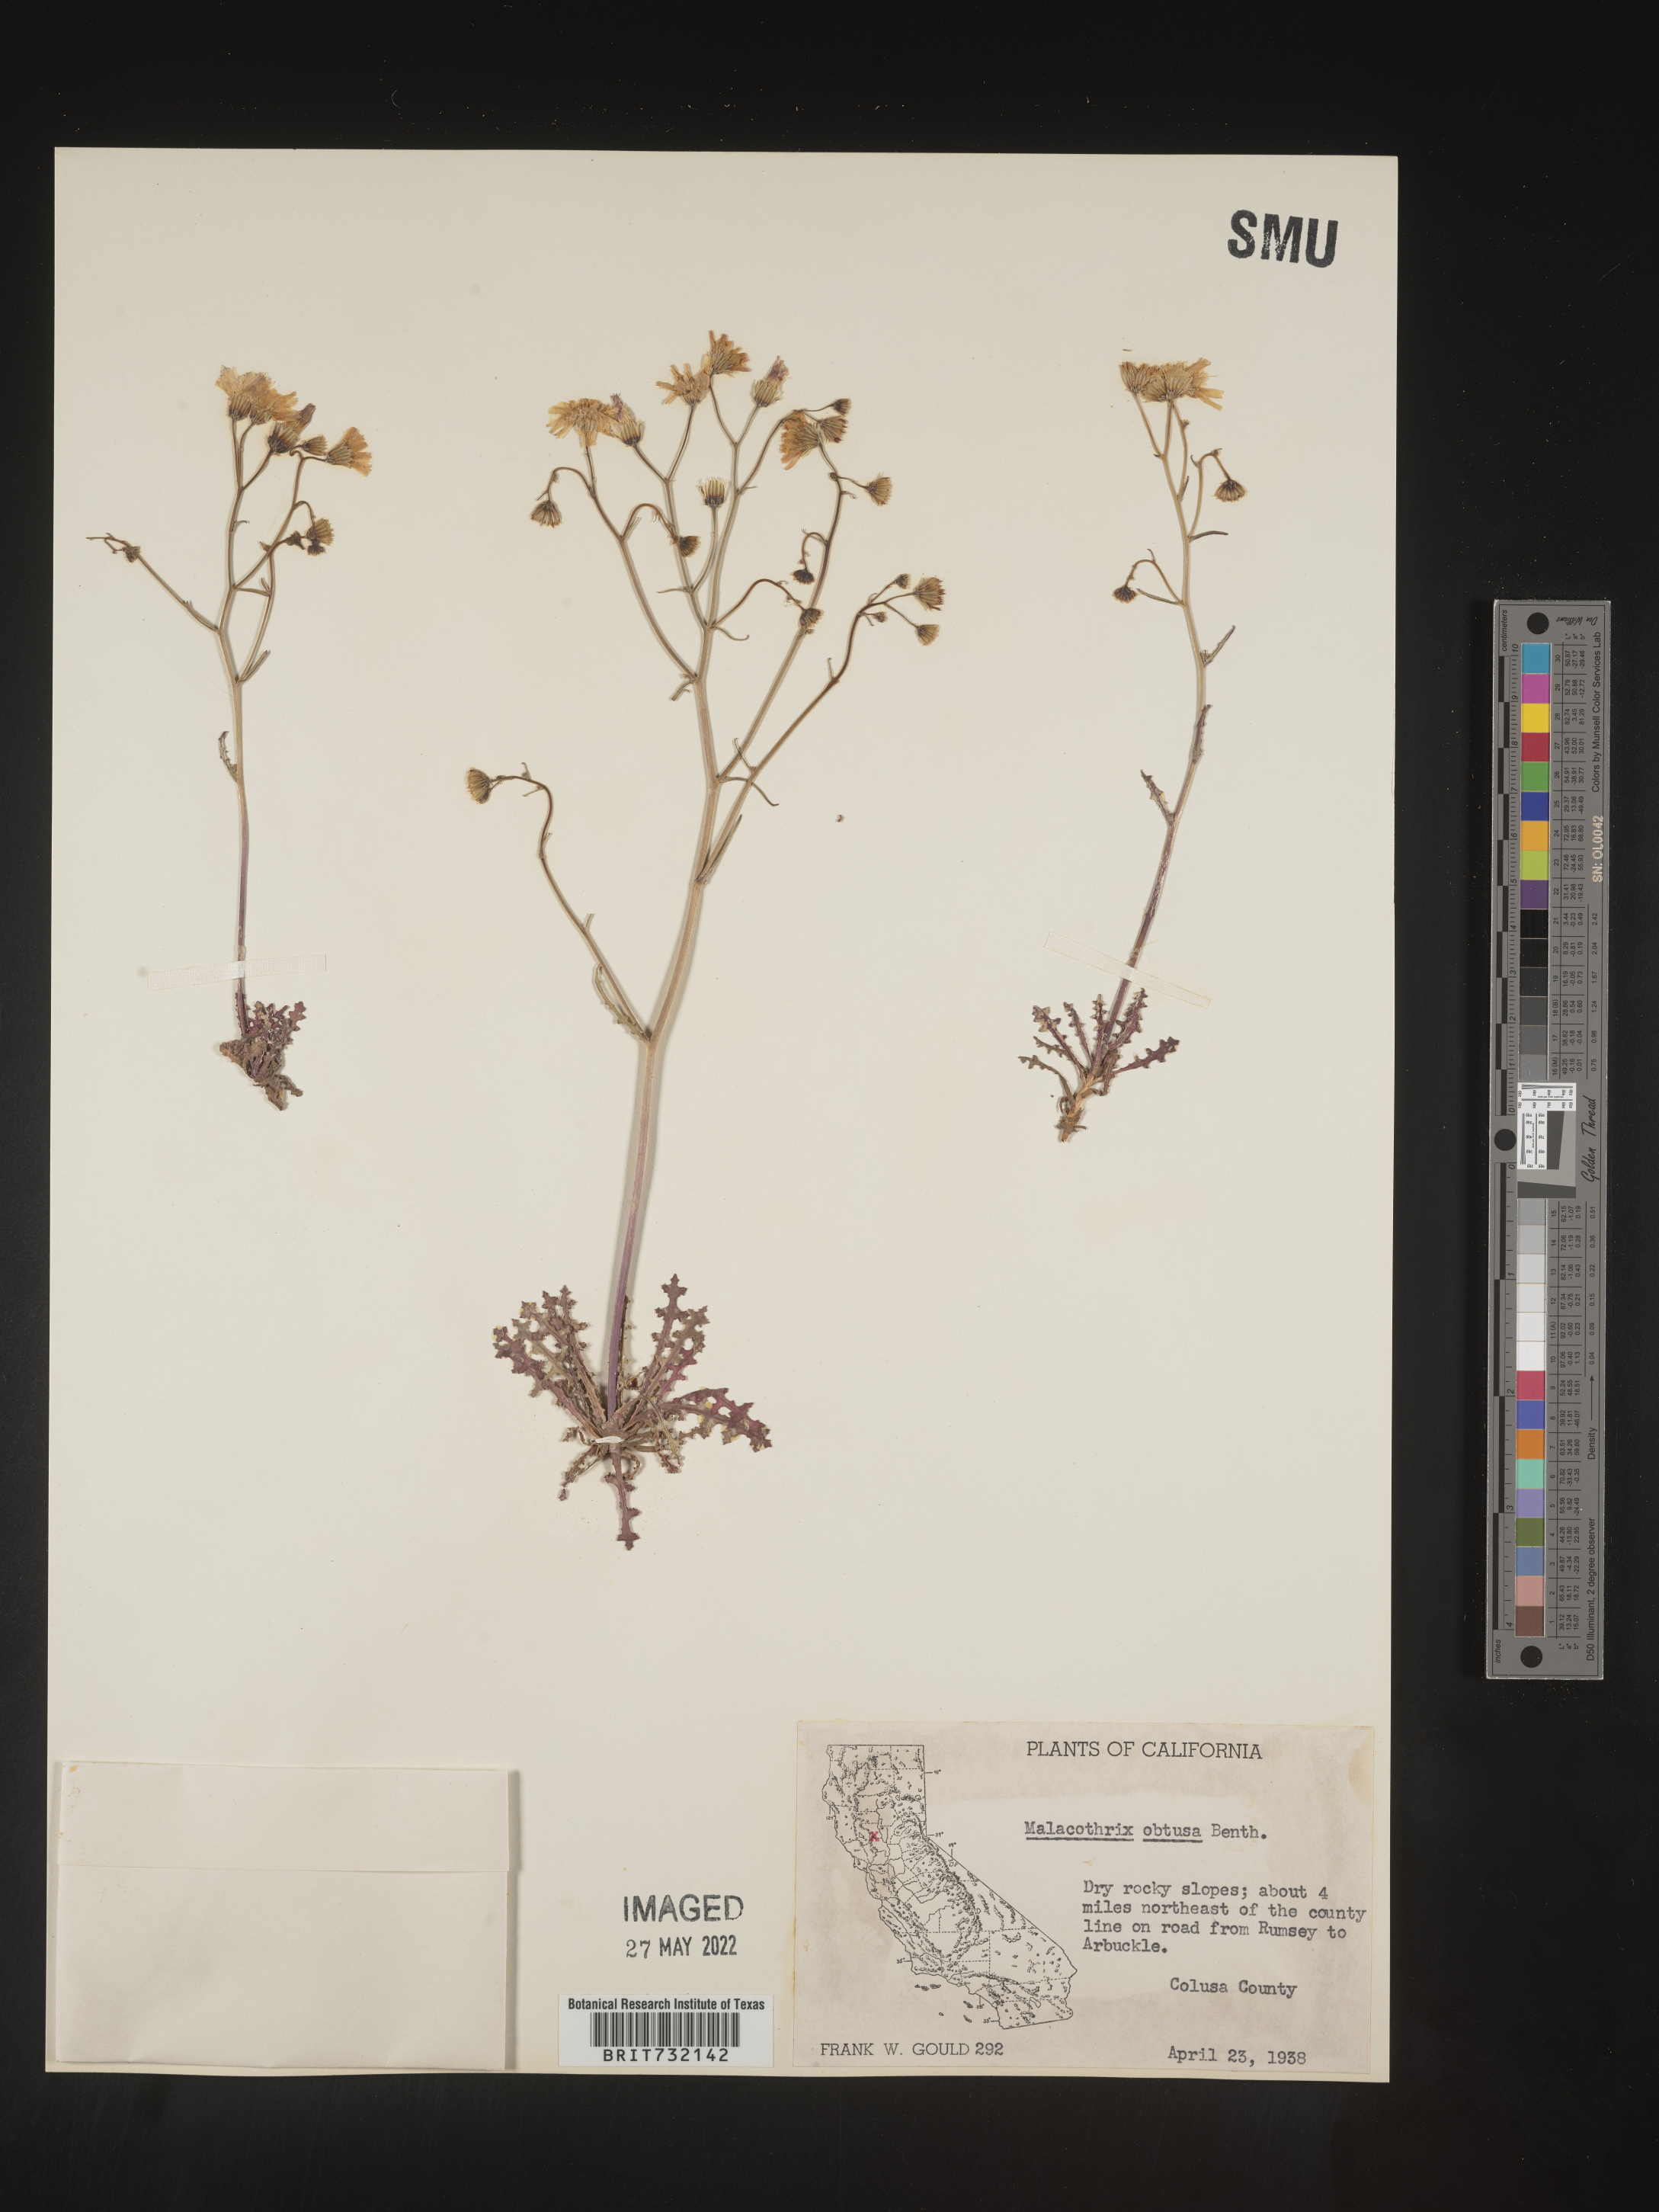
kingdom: Plantae
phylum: Tracheophyta
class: Magnoliopsida
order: Asterales
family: Asteraceae
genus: Malacothrix
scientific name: Malacothrix floccifera
